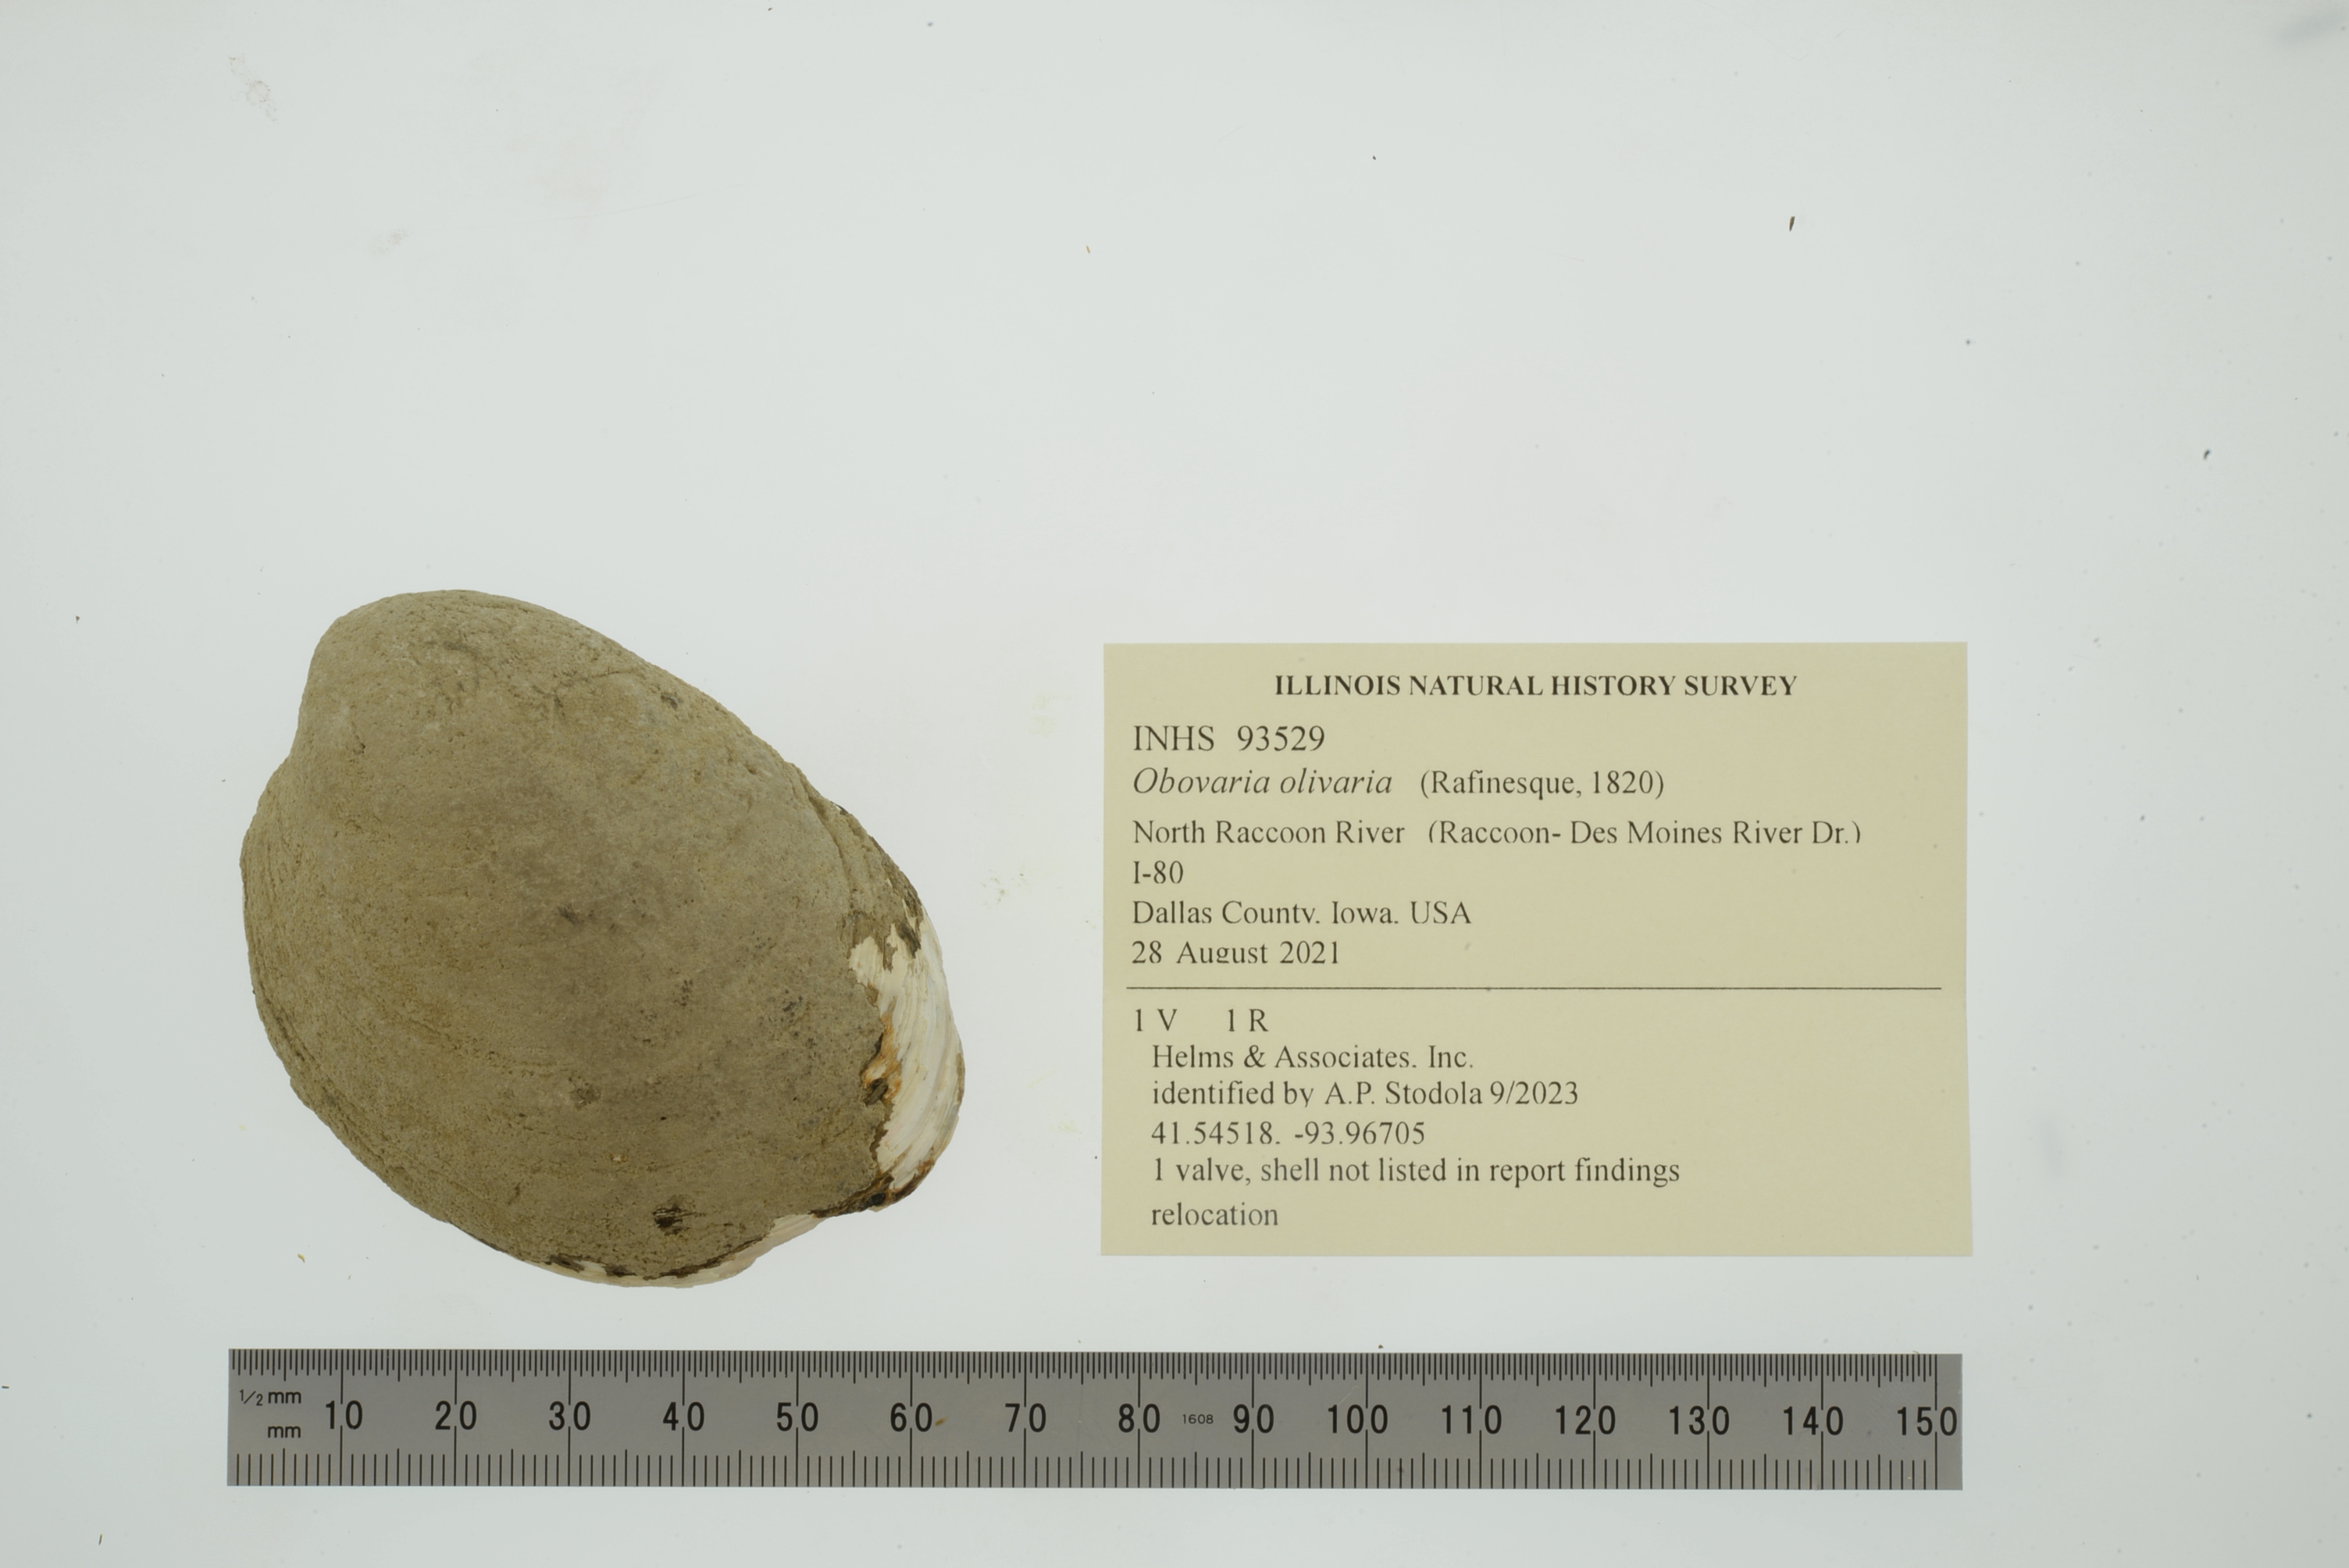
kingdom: Animalia
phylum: Mollusca
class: Bivalvia
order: Unionida
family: Unionidae
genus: Obovaria
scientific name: Obovaria olivaria
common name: Hickorynut
